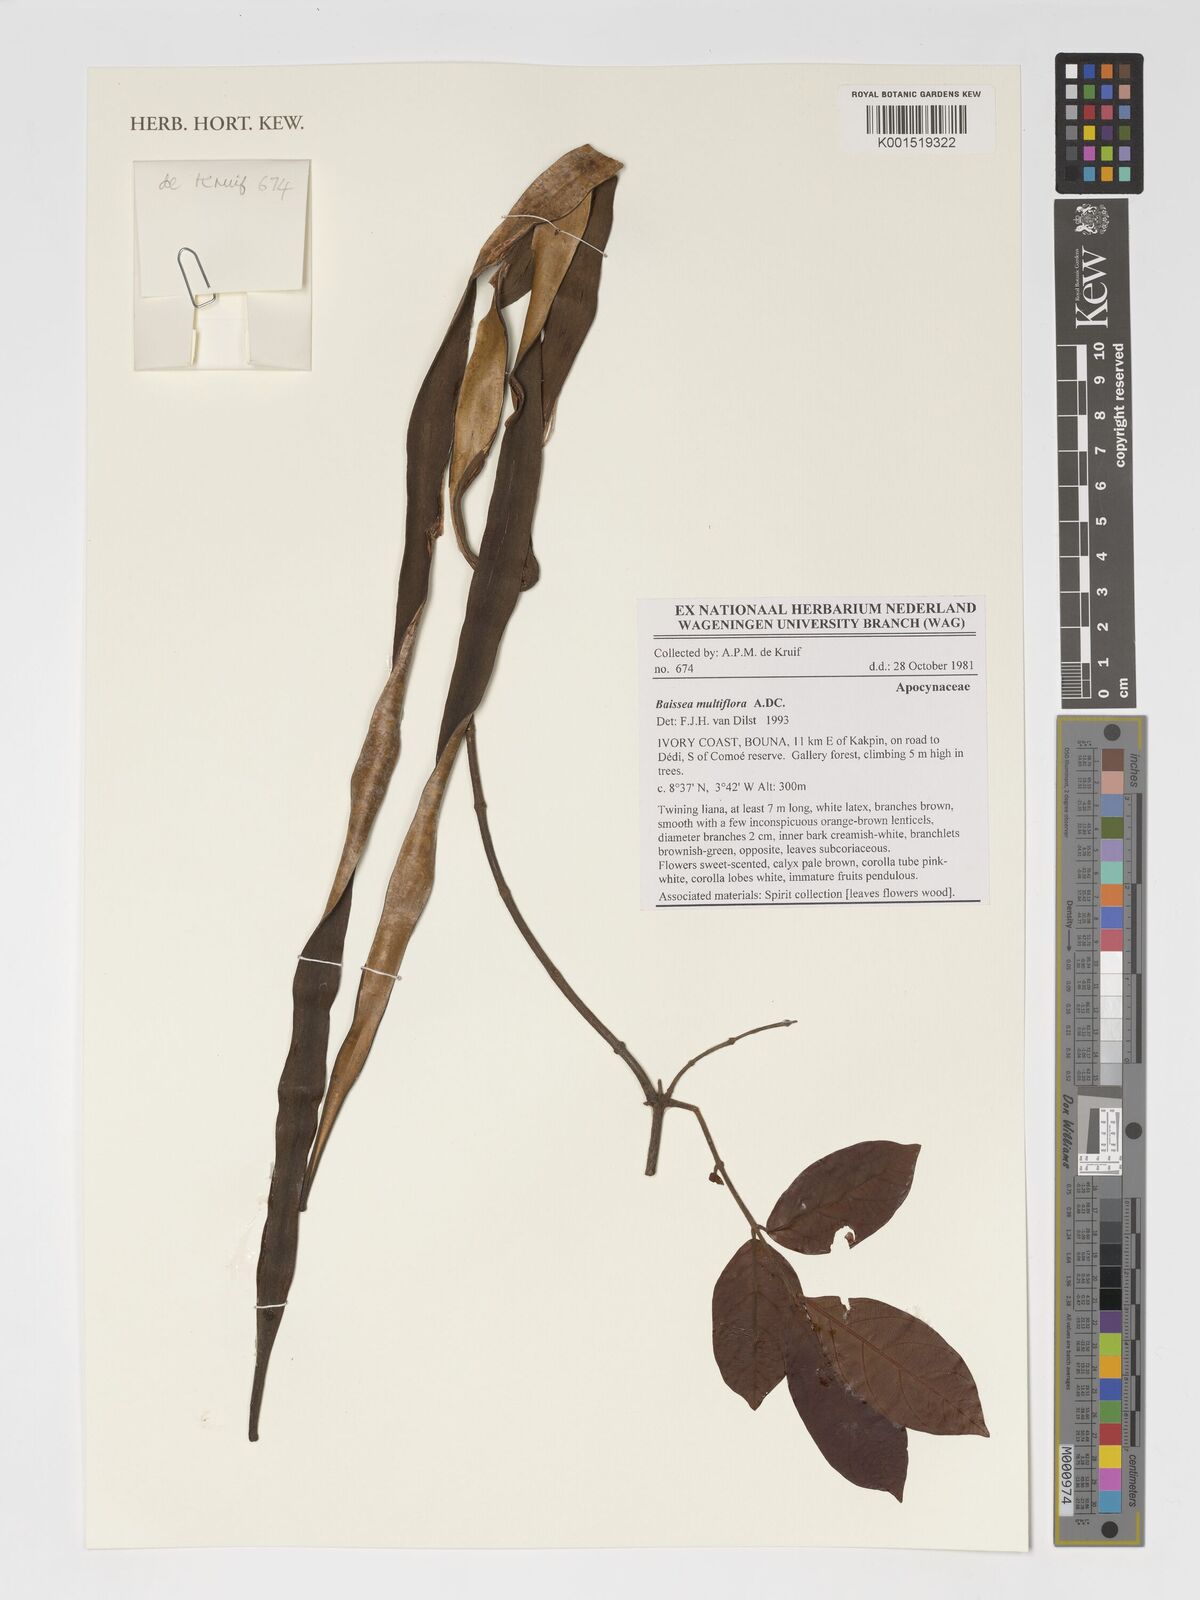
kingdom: Plantae
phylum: Tracheophyta
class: Magnoliopsida
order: Gentianales
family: Apocynaceae
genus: Baissea
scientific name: Baissea multiflora
